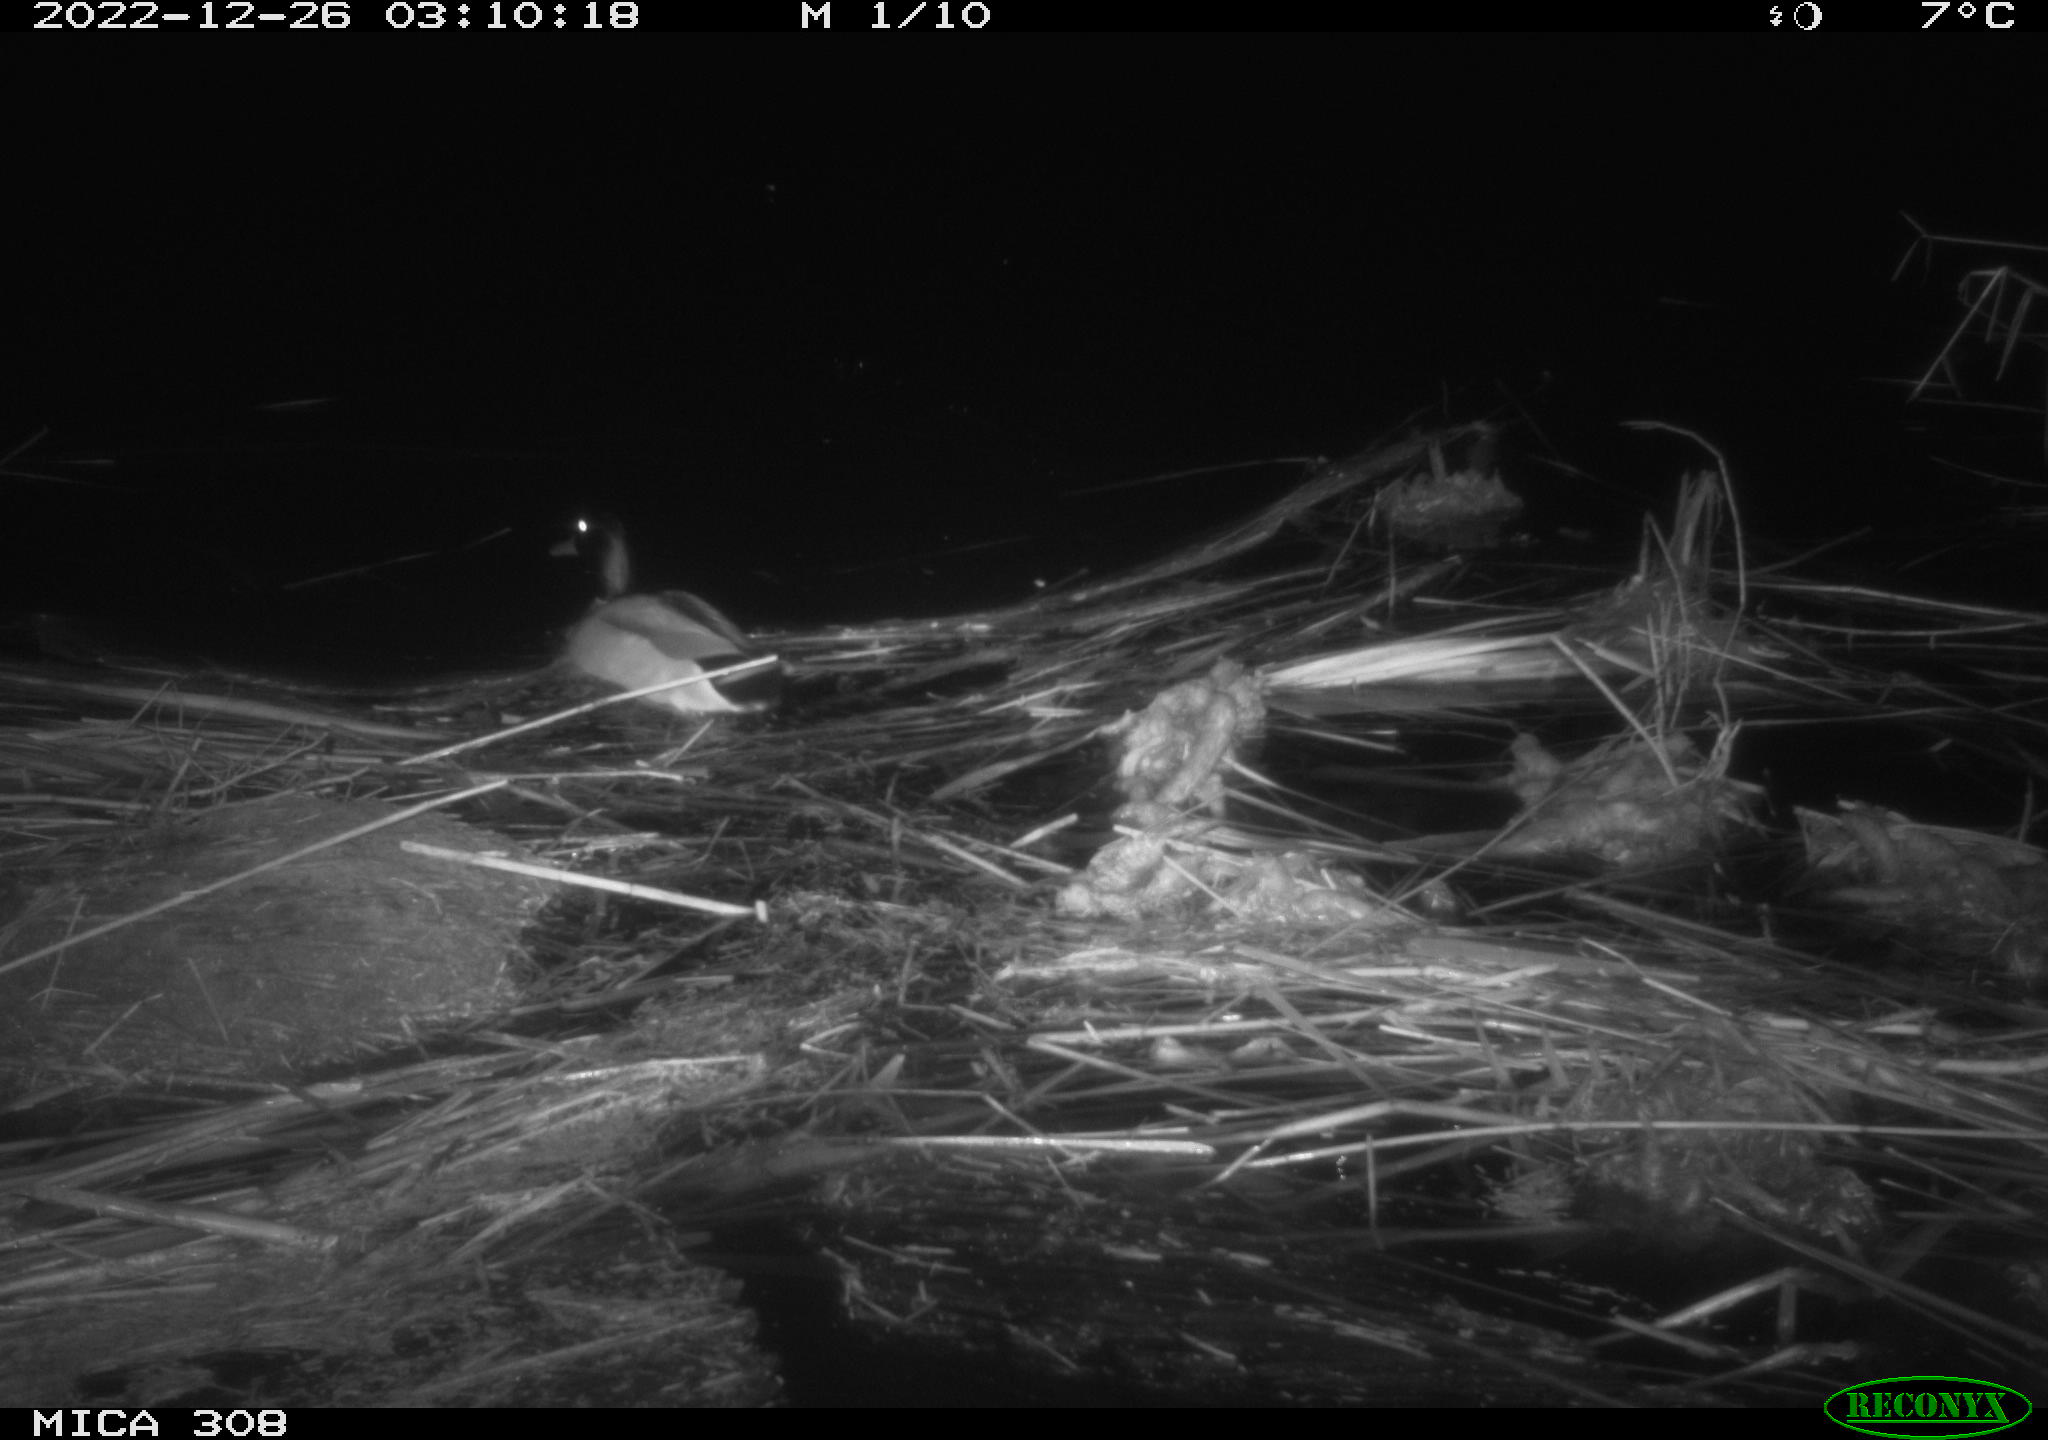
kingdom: Animalia
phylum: Chordata
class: Aves
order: Anseriformes
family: Anatidae
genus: Anas
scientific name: Anas
